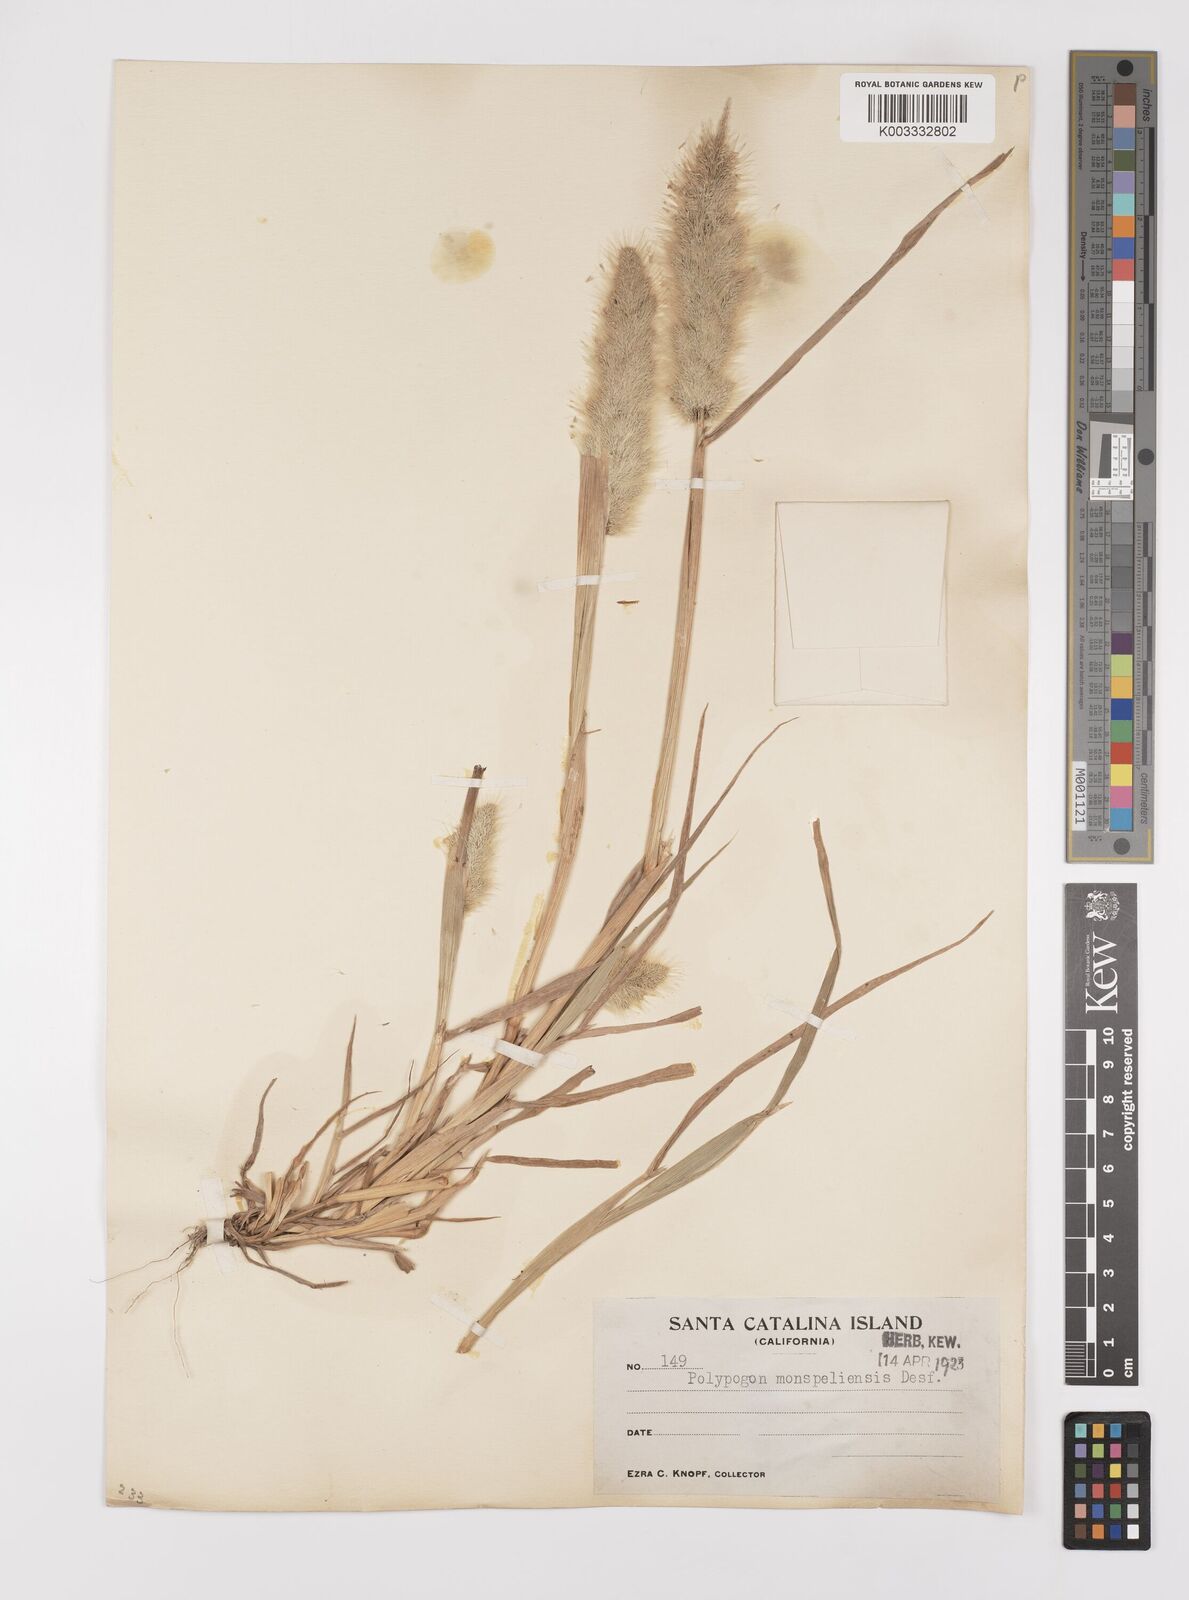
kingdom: Plantae
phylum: Tracheophyta
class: Liliopsida
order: Poales
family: Poaceae
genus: Polypogon
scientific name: Polypogon monspeliensis
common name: Annual rabbitsfoot grass
